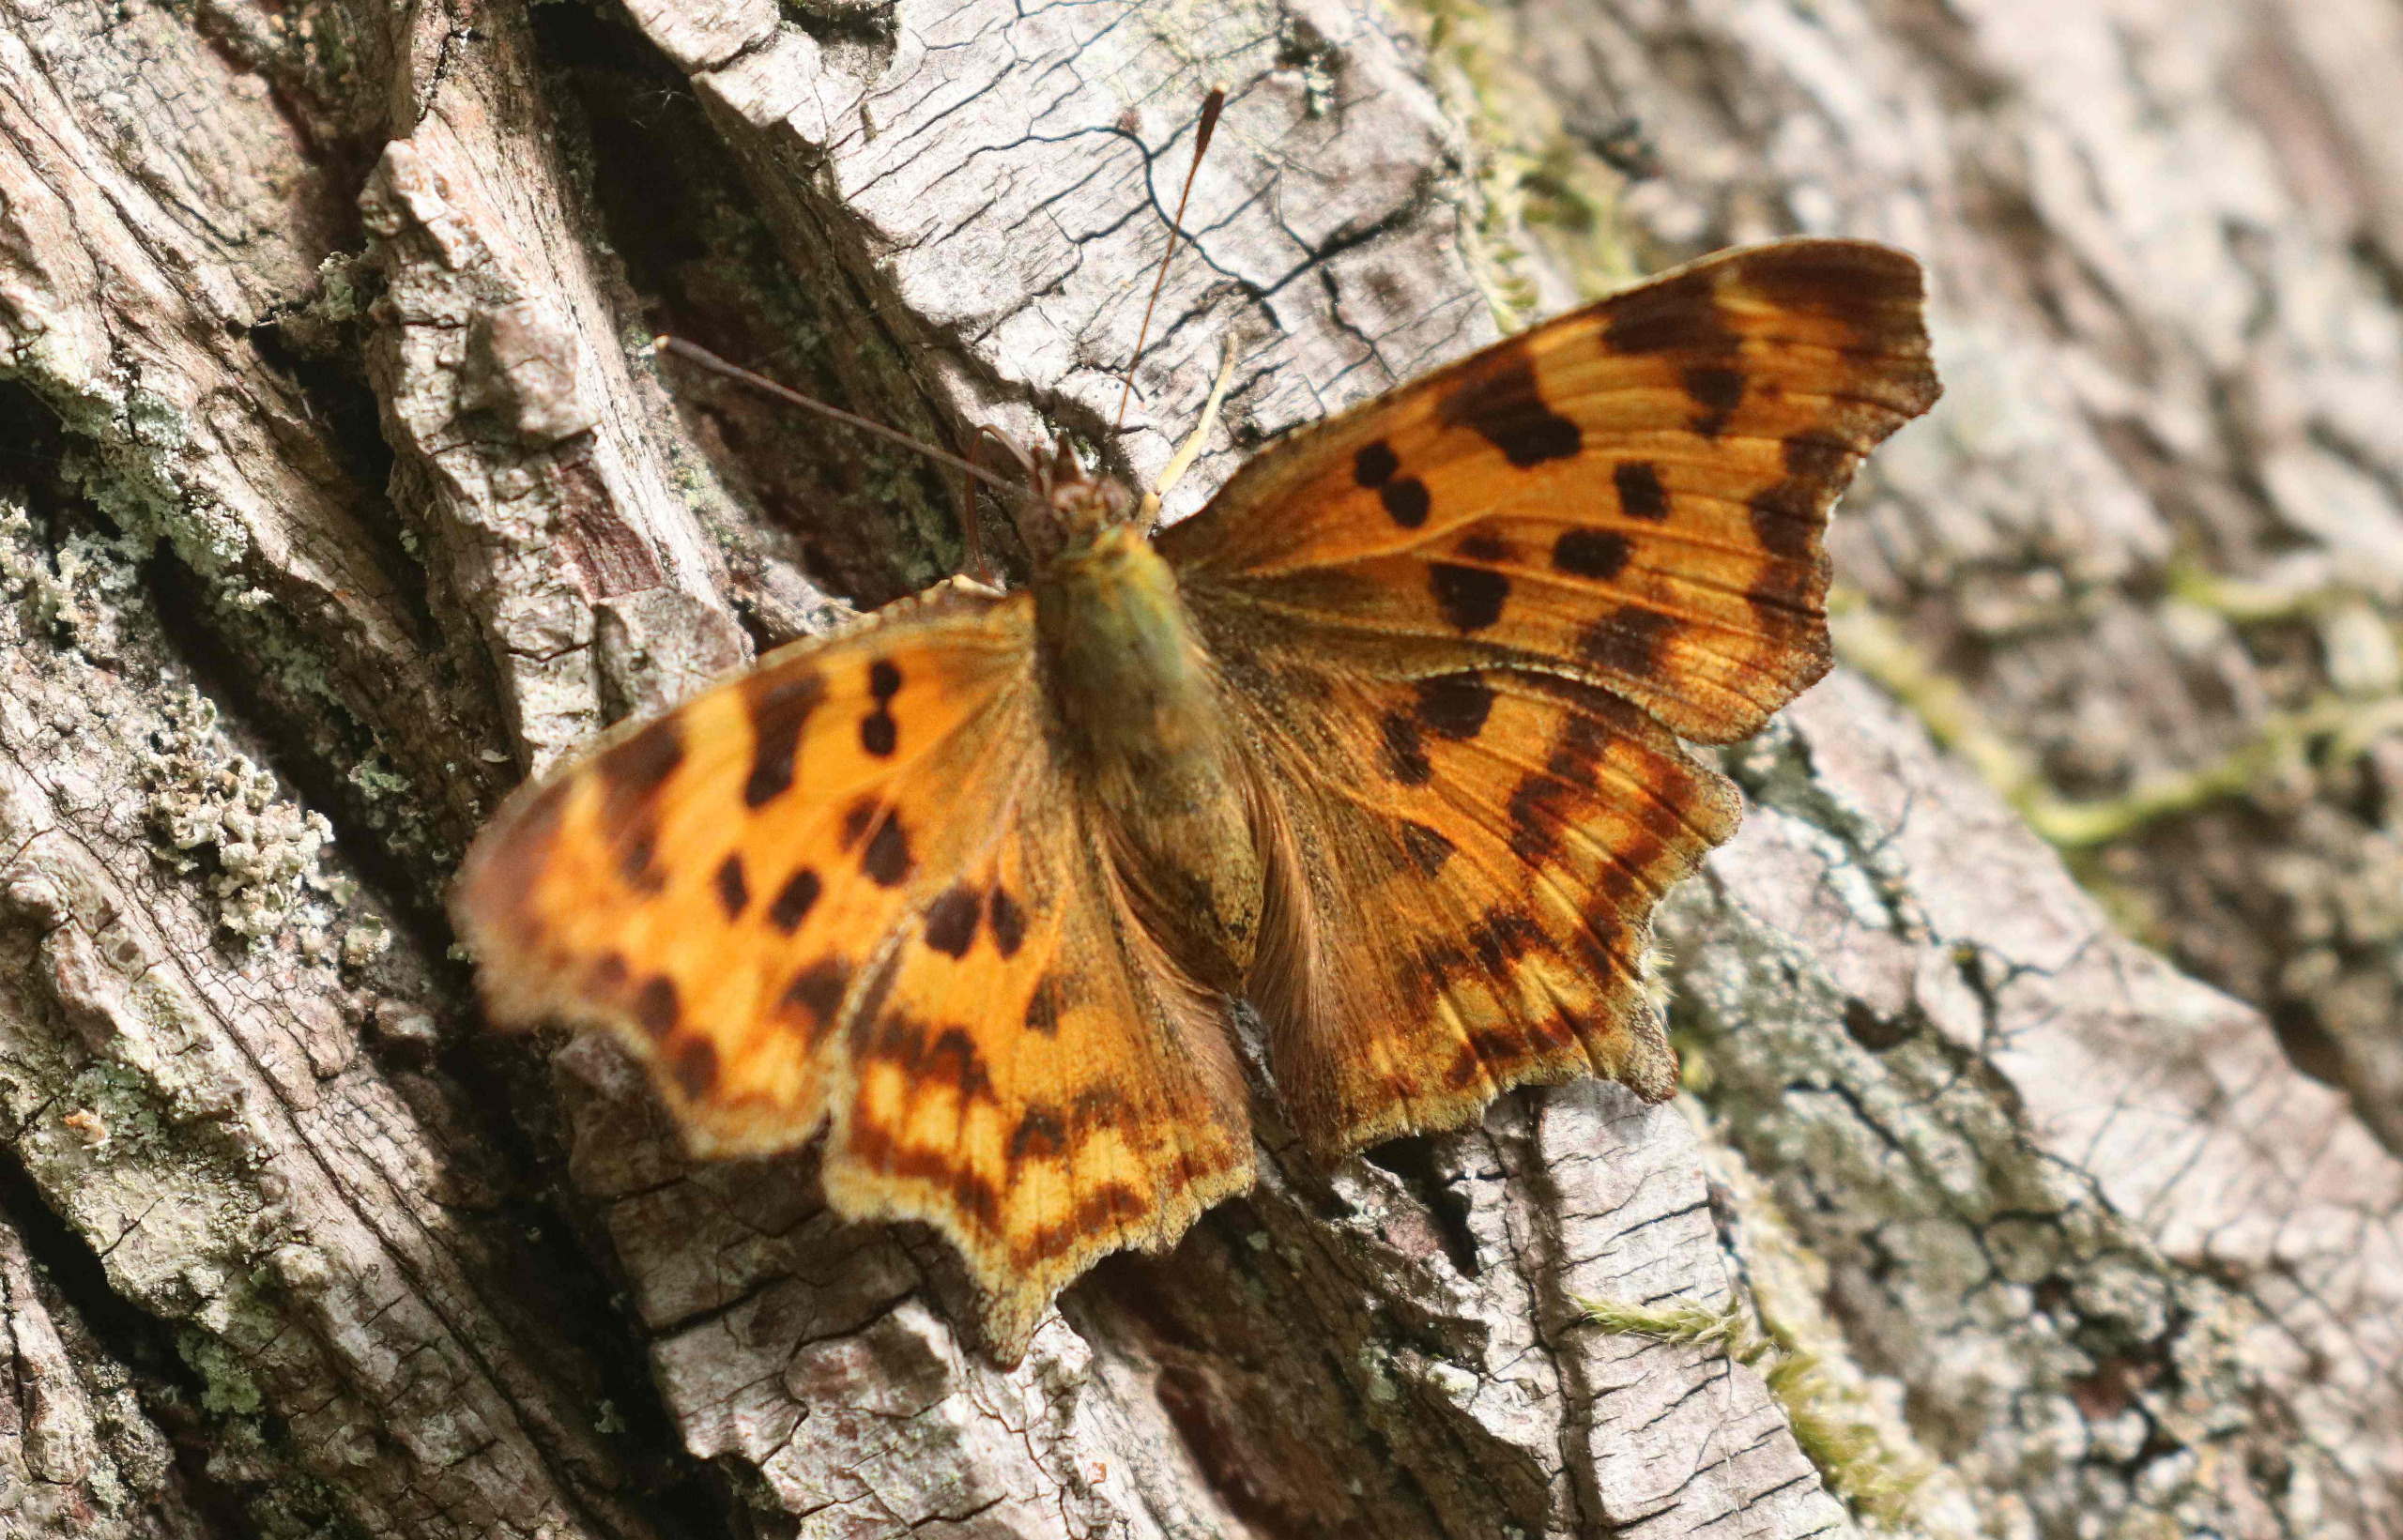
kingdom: Animalia
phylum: Arthropoda
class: Insecta
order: Lepidoptera
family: Nymphalidae
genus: Polygonia
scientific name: Polygonia c-album
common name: Det hvide C
